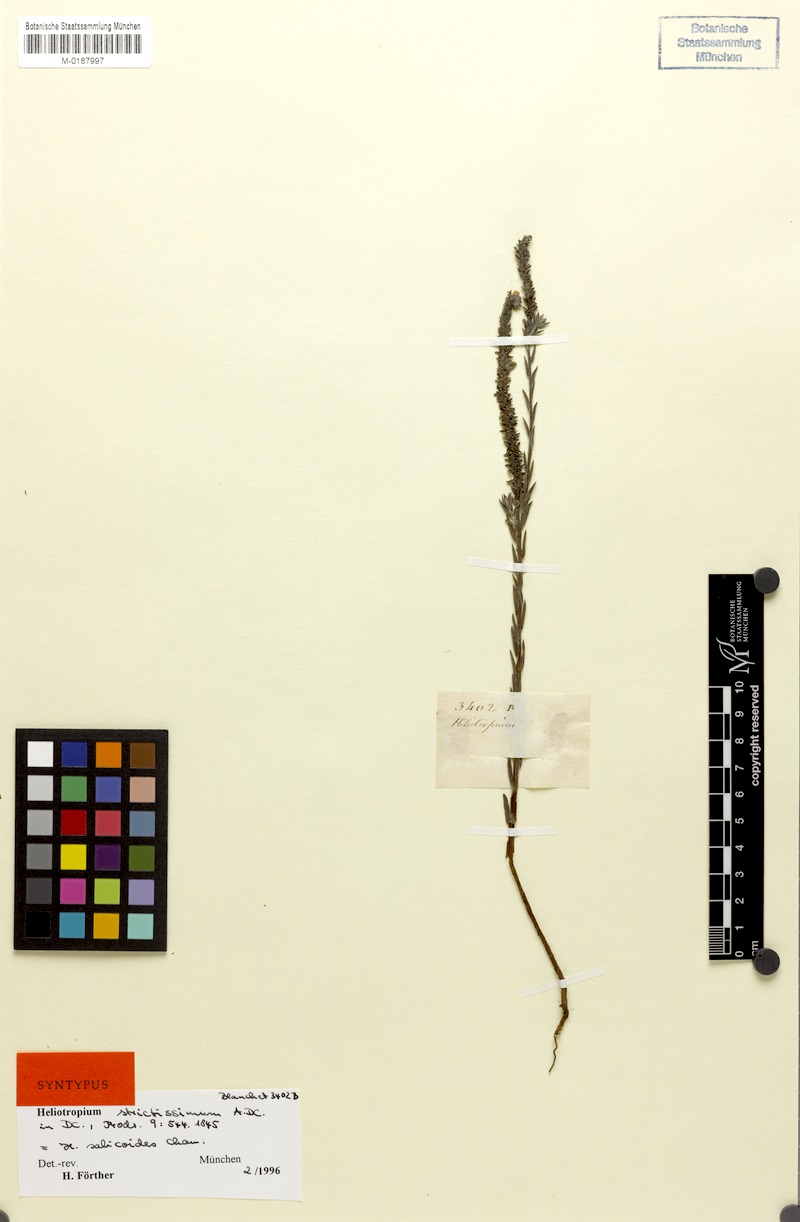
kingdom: Plantae
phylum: Tracheophyta
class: Magnoliopsida
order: Boraginales
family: Heliotropiaceae
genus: Euploca
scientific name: Euploca salicoides
